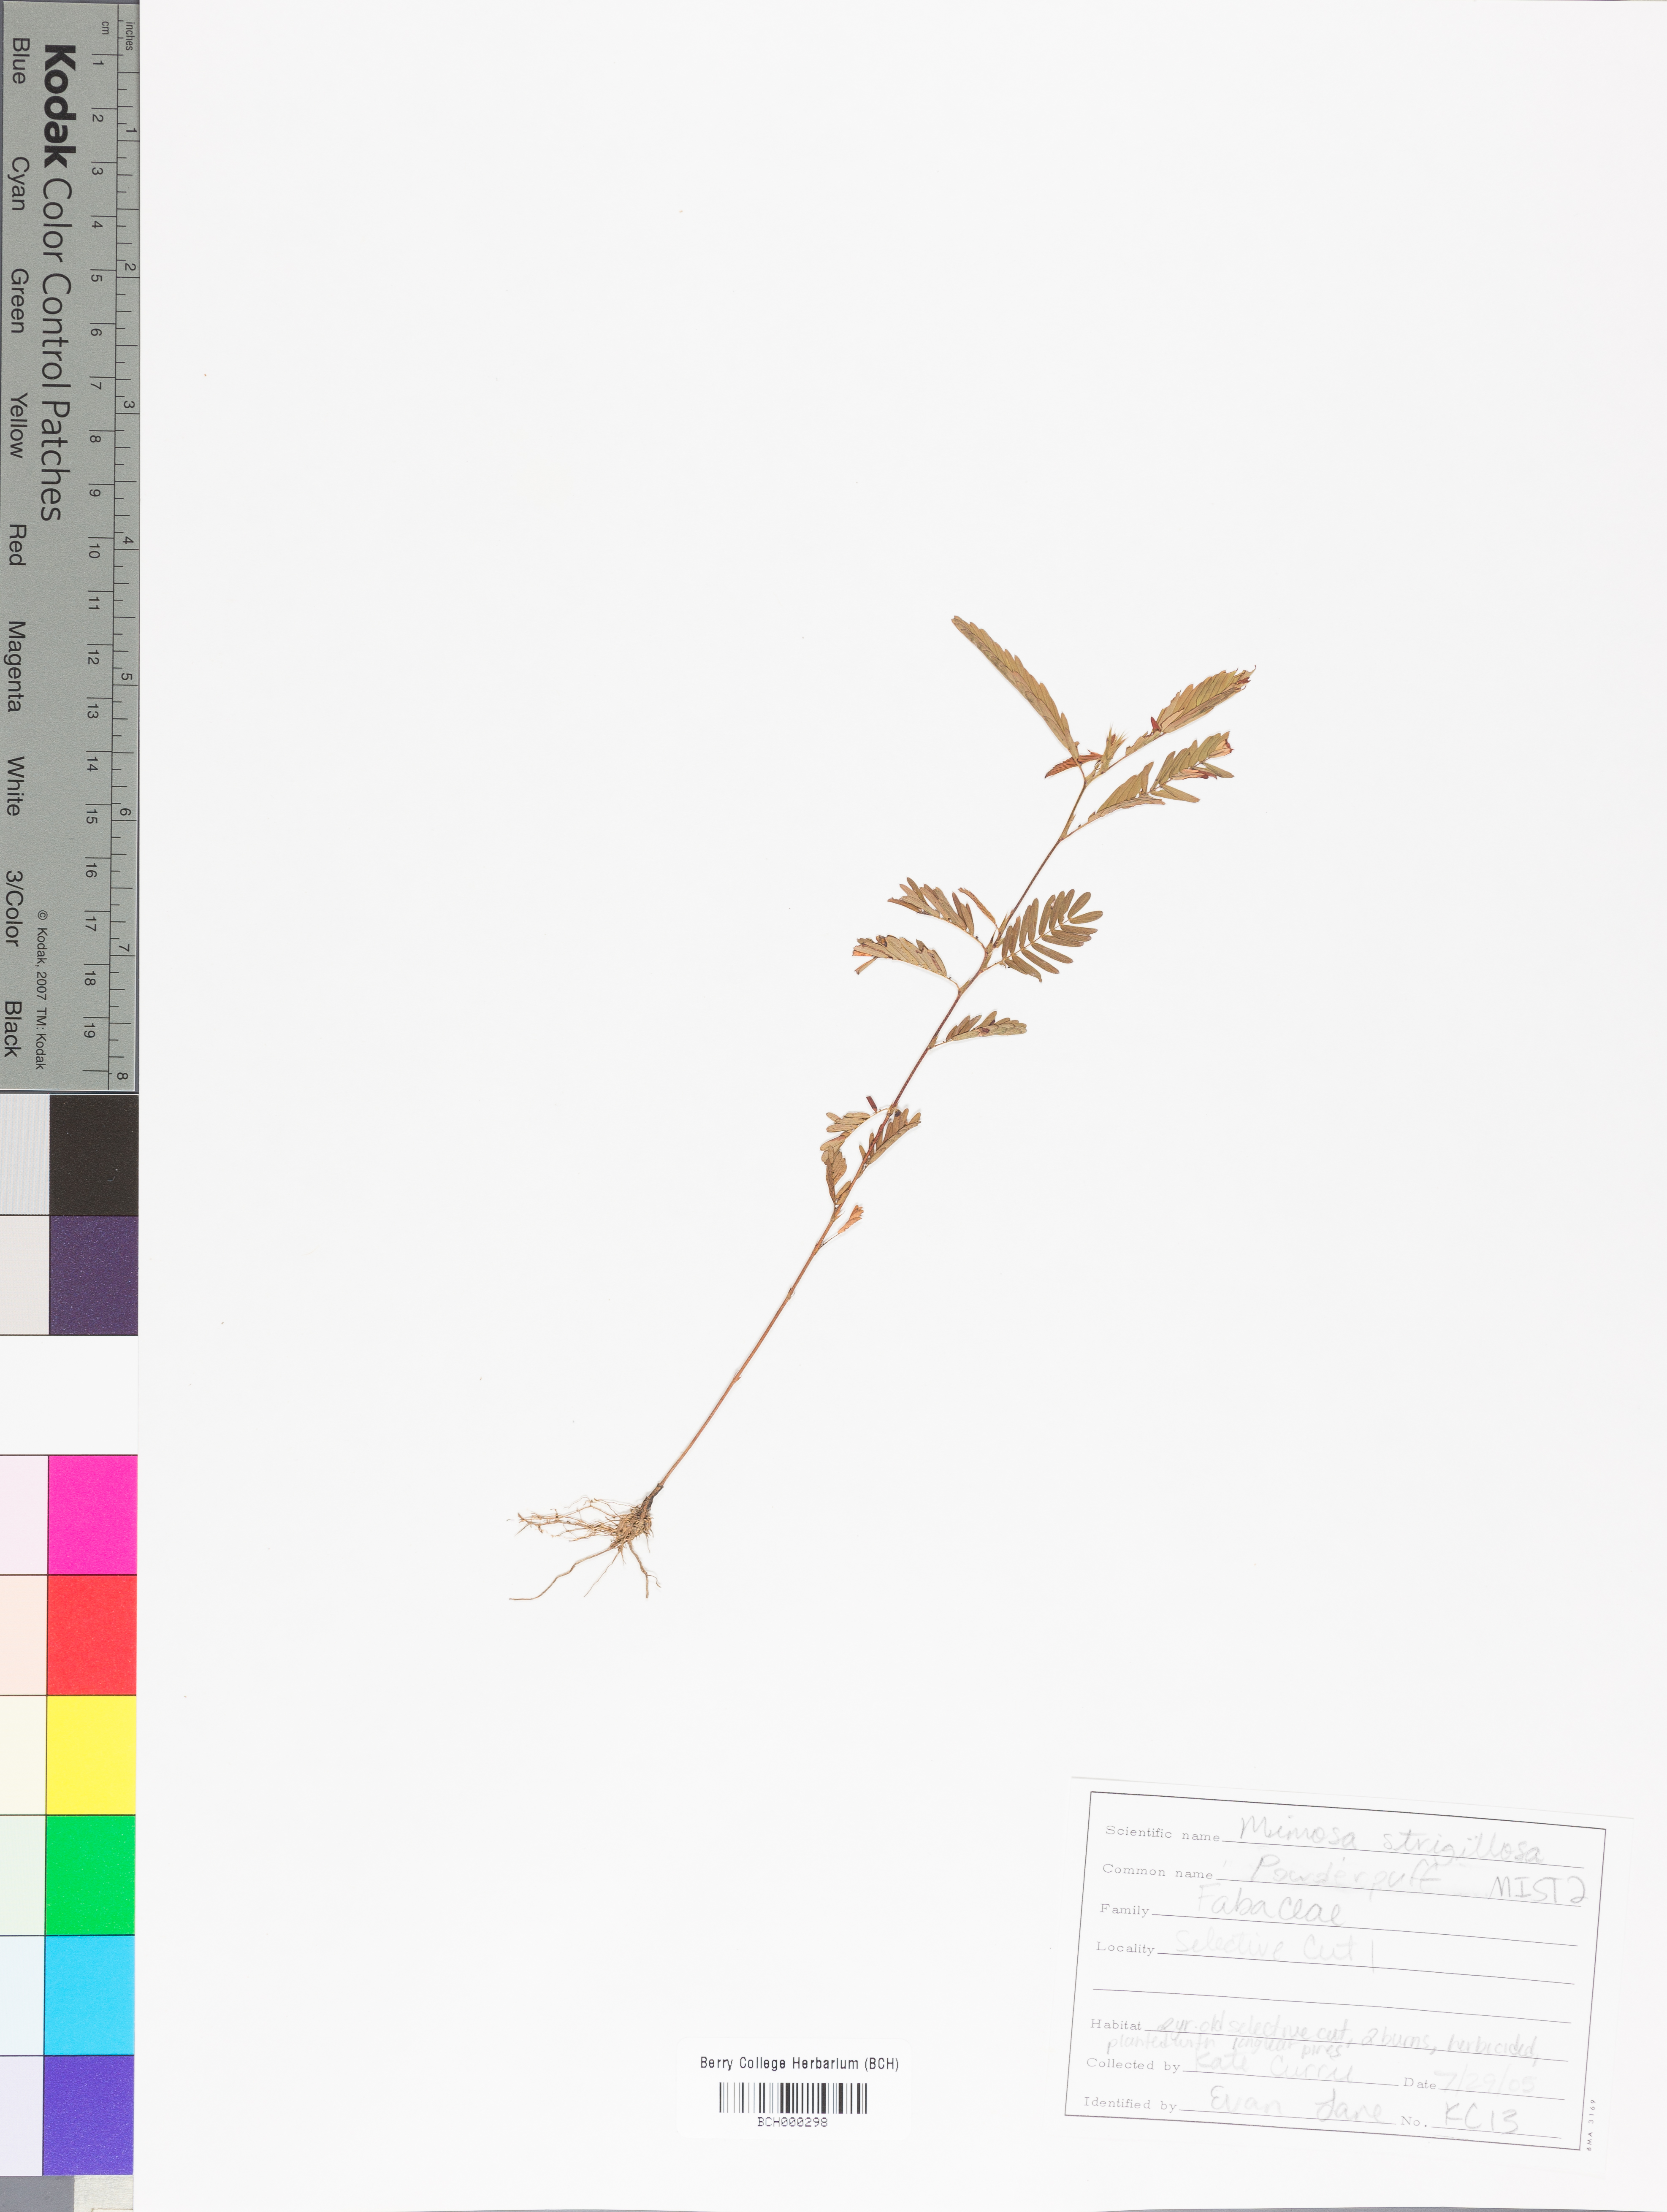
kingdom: Plantae
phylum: Tracheophyta
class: Magnoliopsida
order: Fabales
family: Fabaceae
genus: Mimosa
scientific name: Mimosa strigillosa
